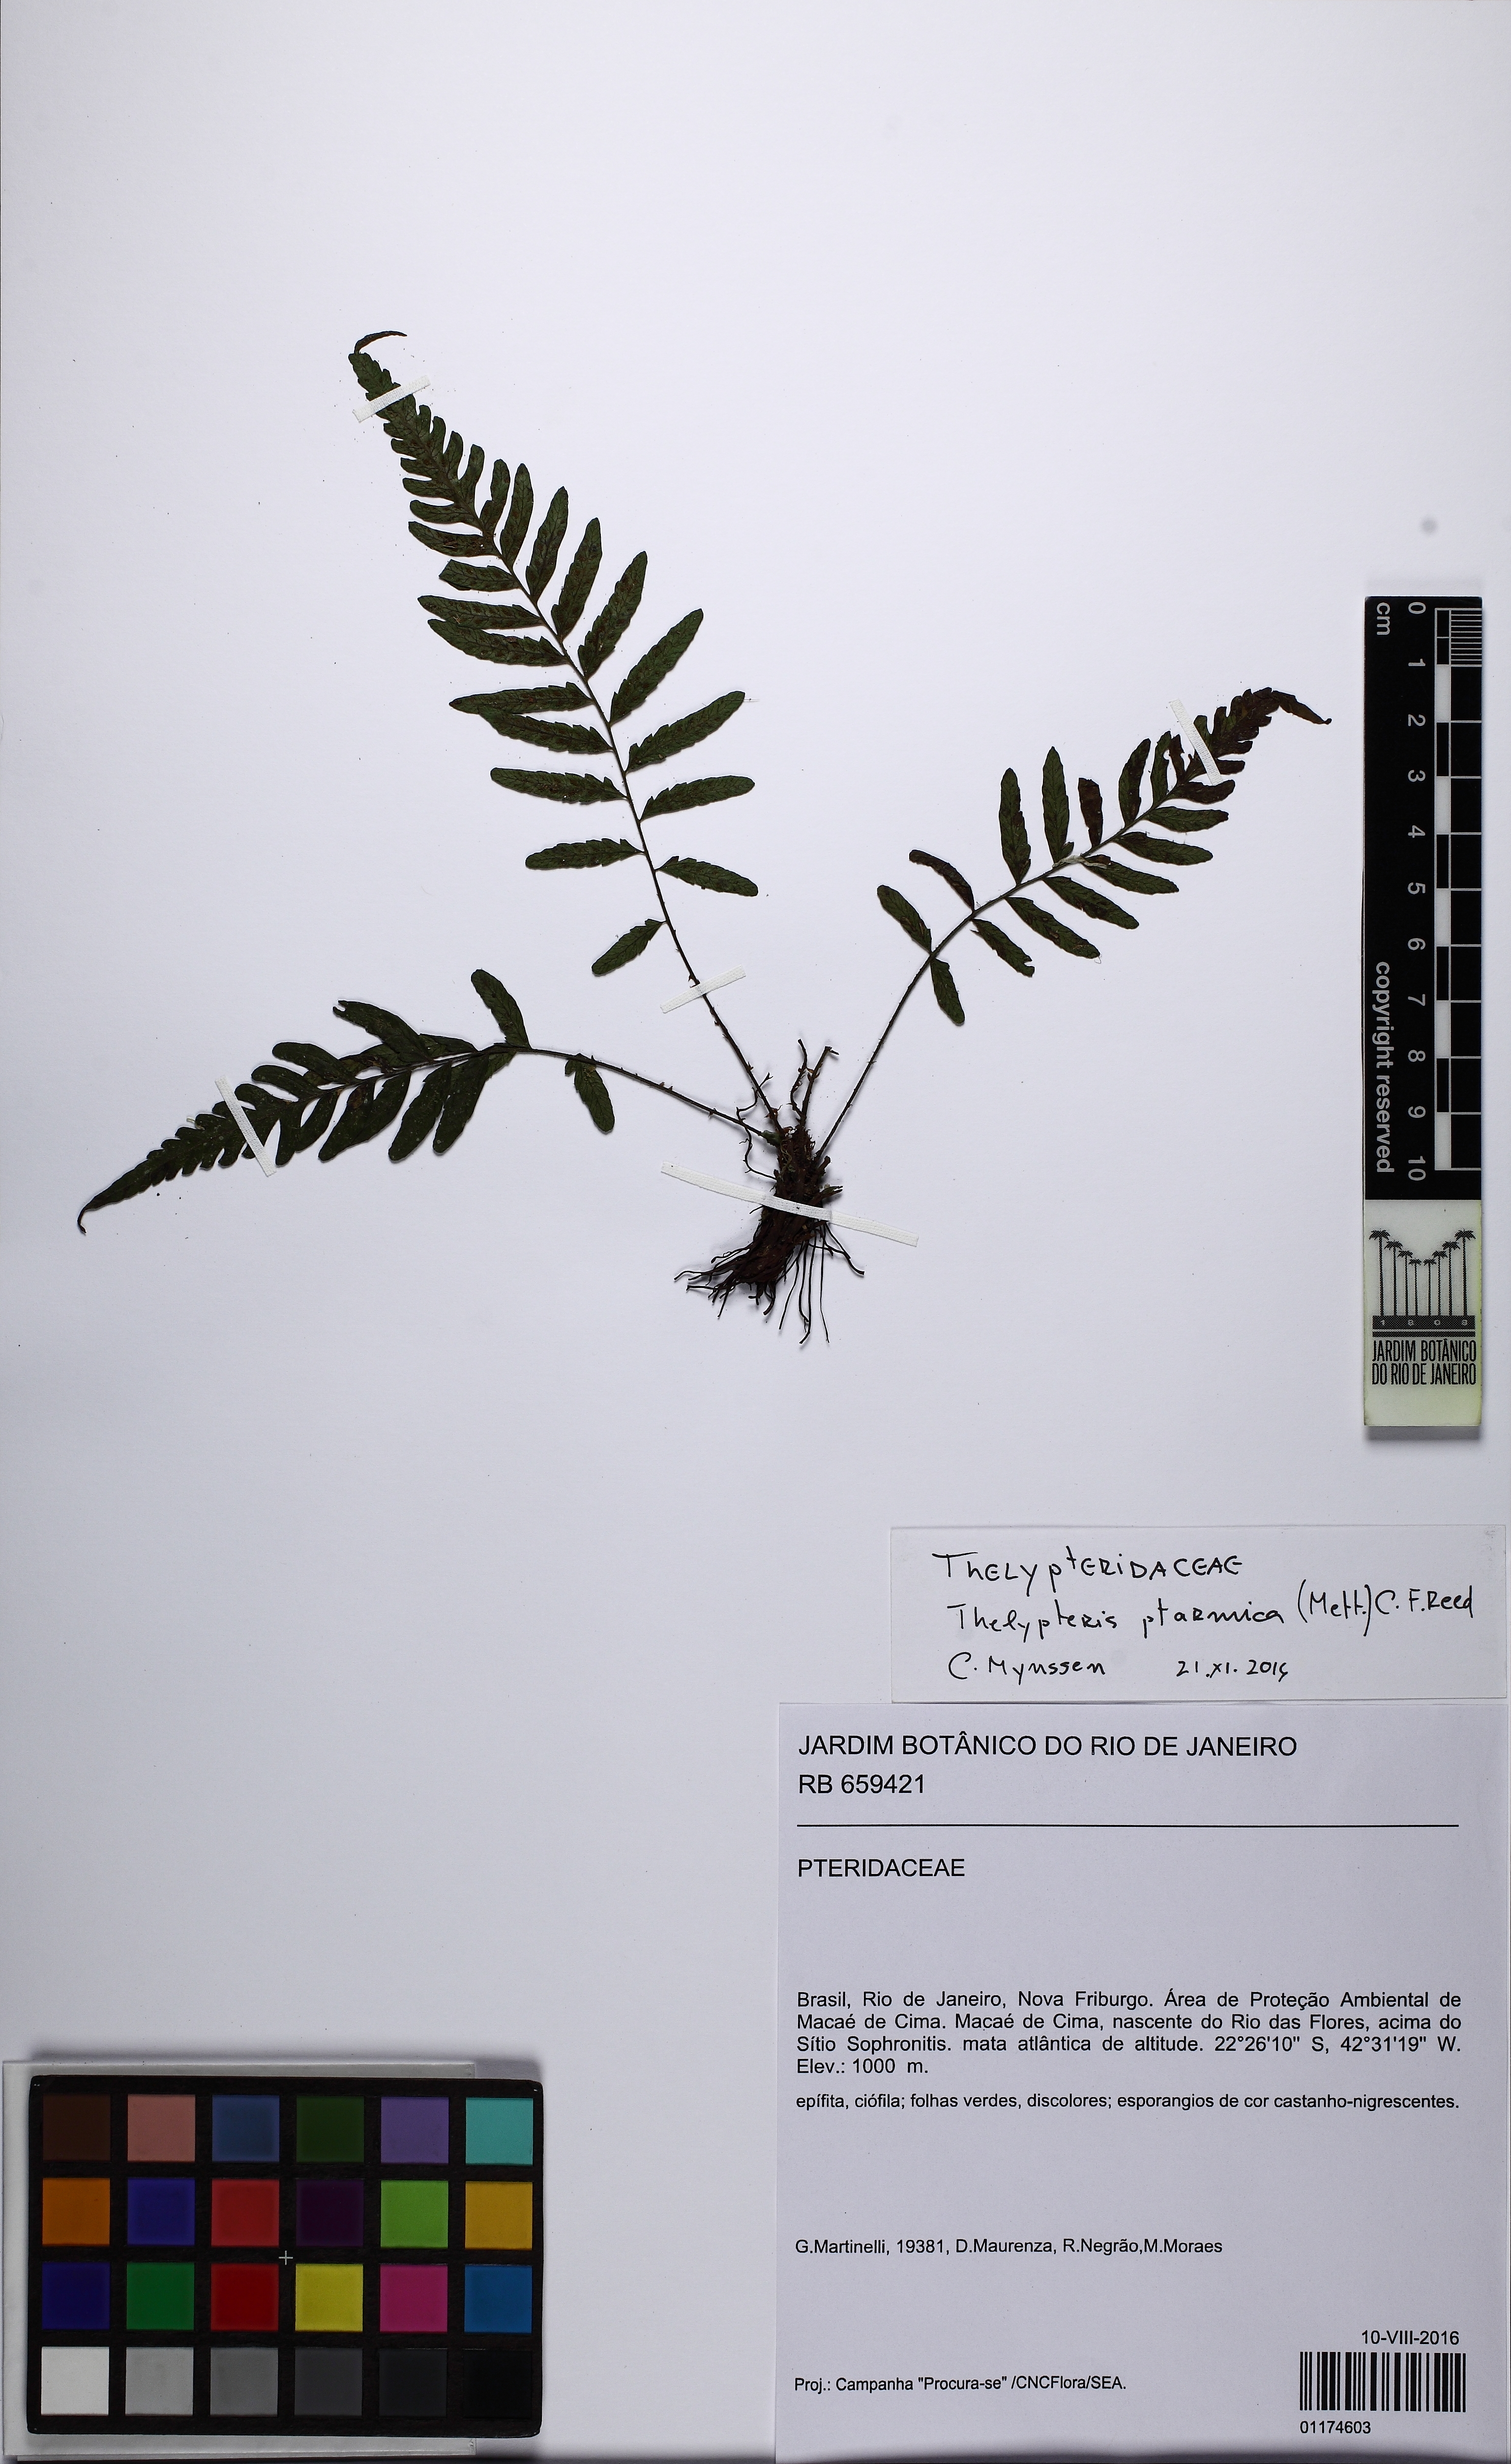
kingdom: Plantae
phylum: Tracheophyta
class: Polypodiopsida
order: Polypodiales
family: Thelypteridaceae
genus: Amauropelta
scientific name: Amauropelta ptarmica
